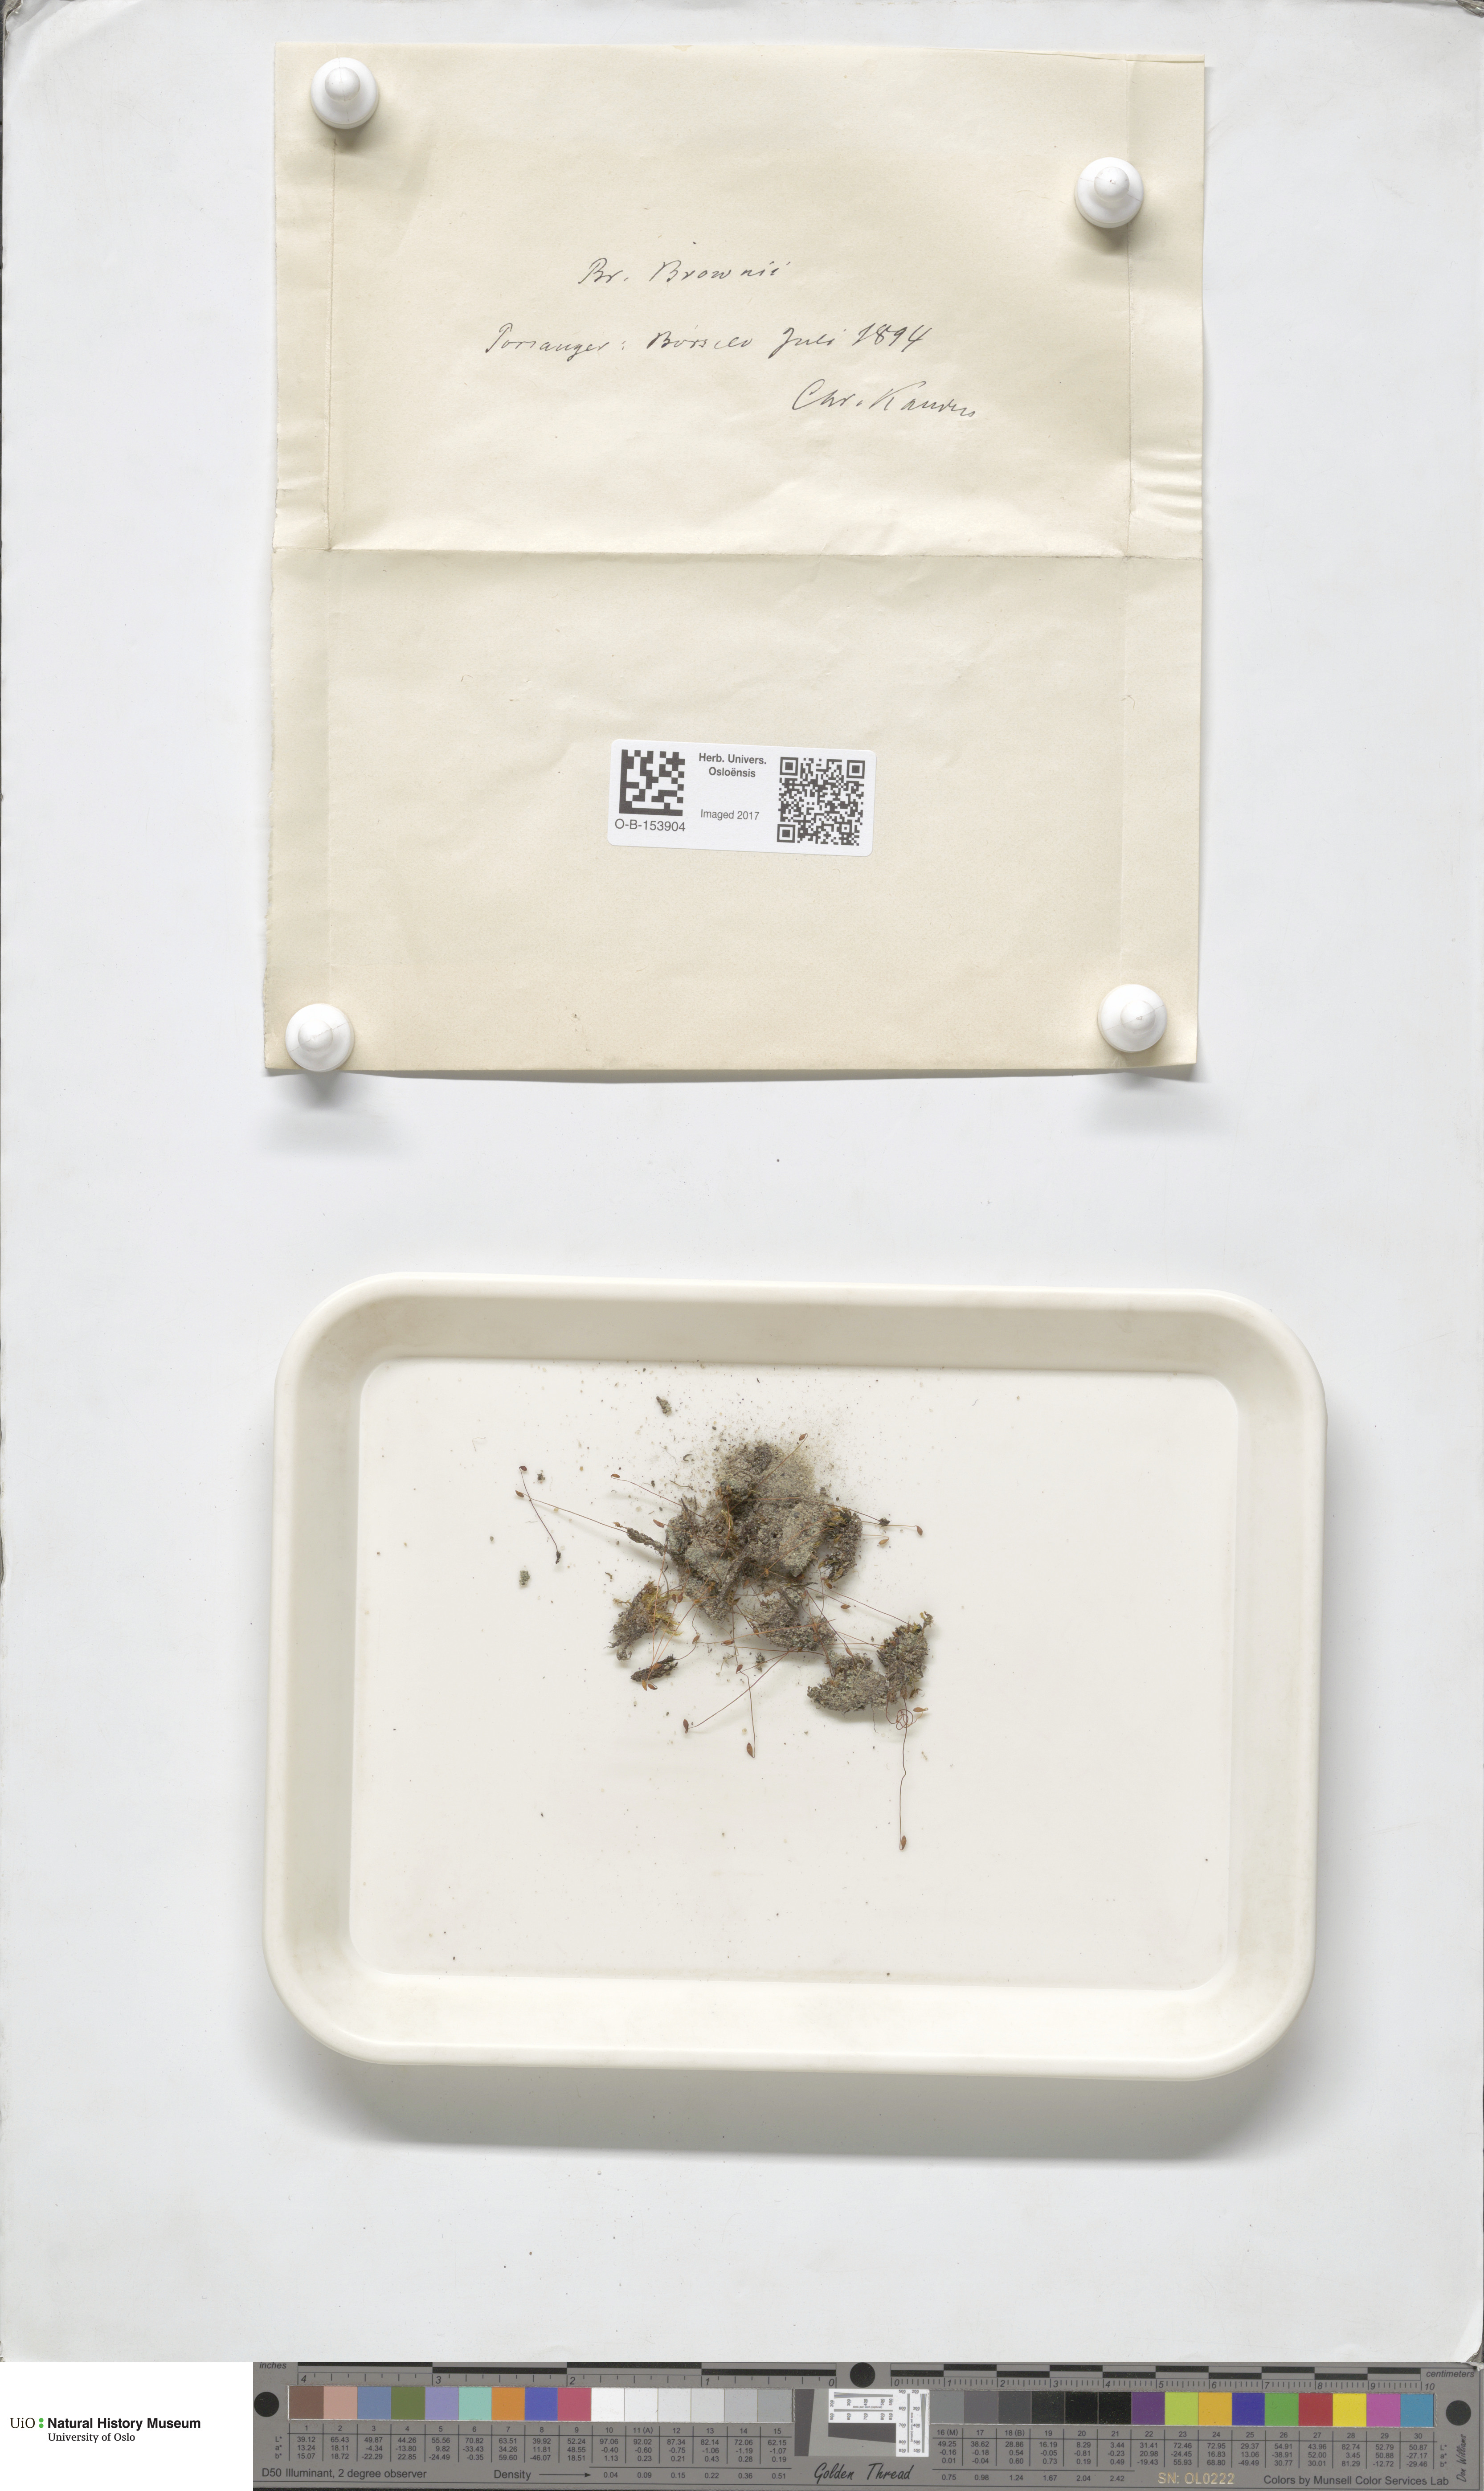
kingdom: Plantae
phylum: Bryophyta
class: Bryopsida
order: Bryales
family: Bryaceae
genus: Ptychostomum
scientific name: Ptychostomum arcticum
